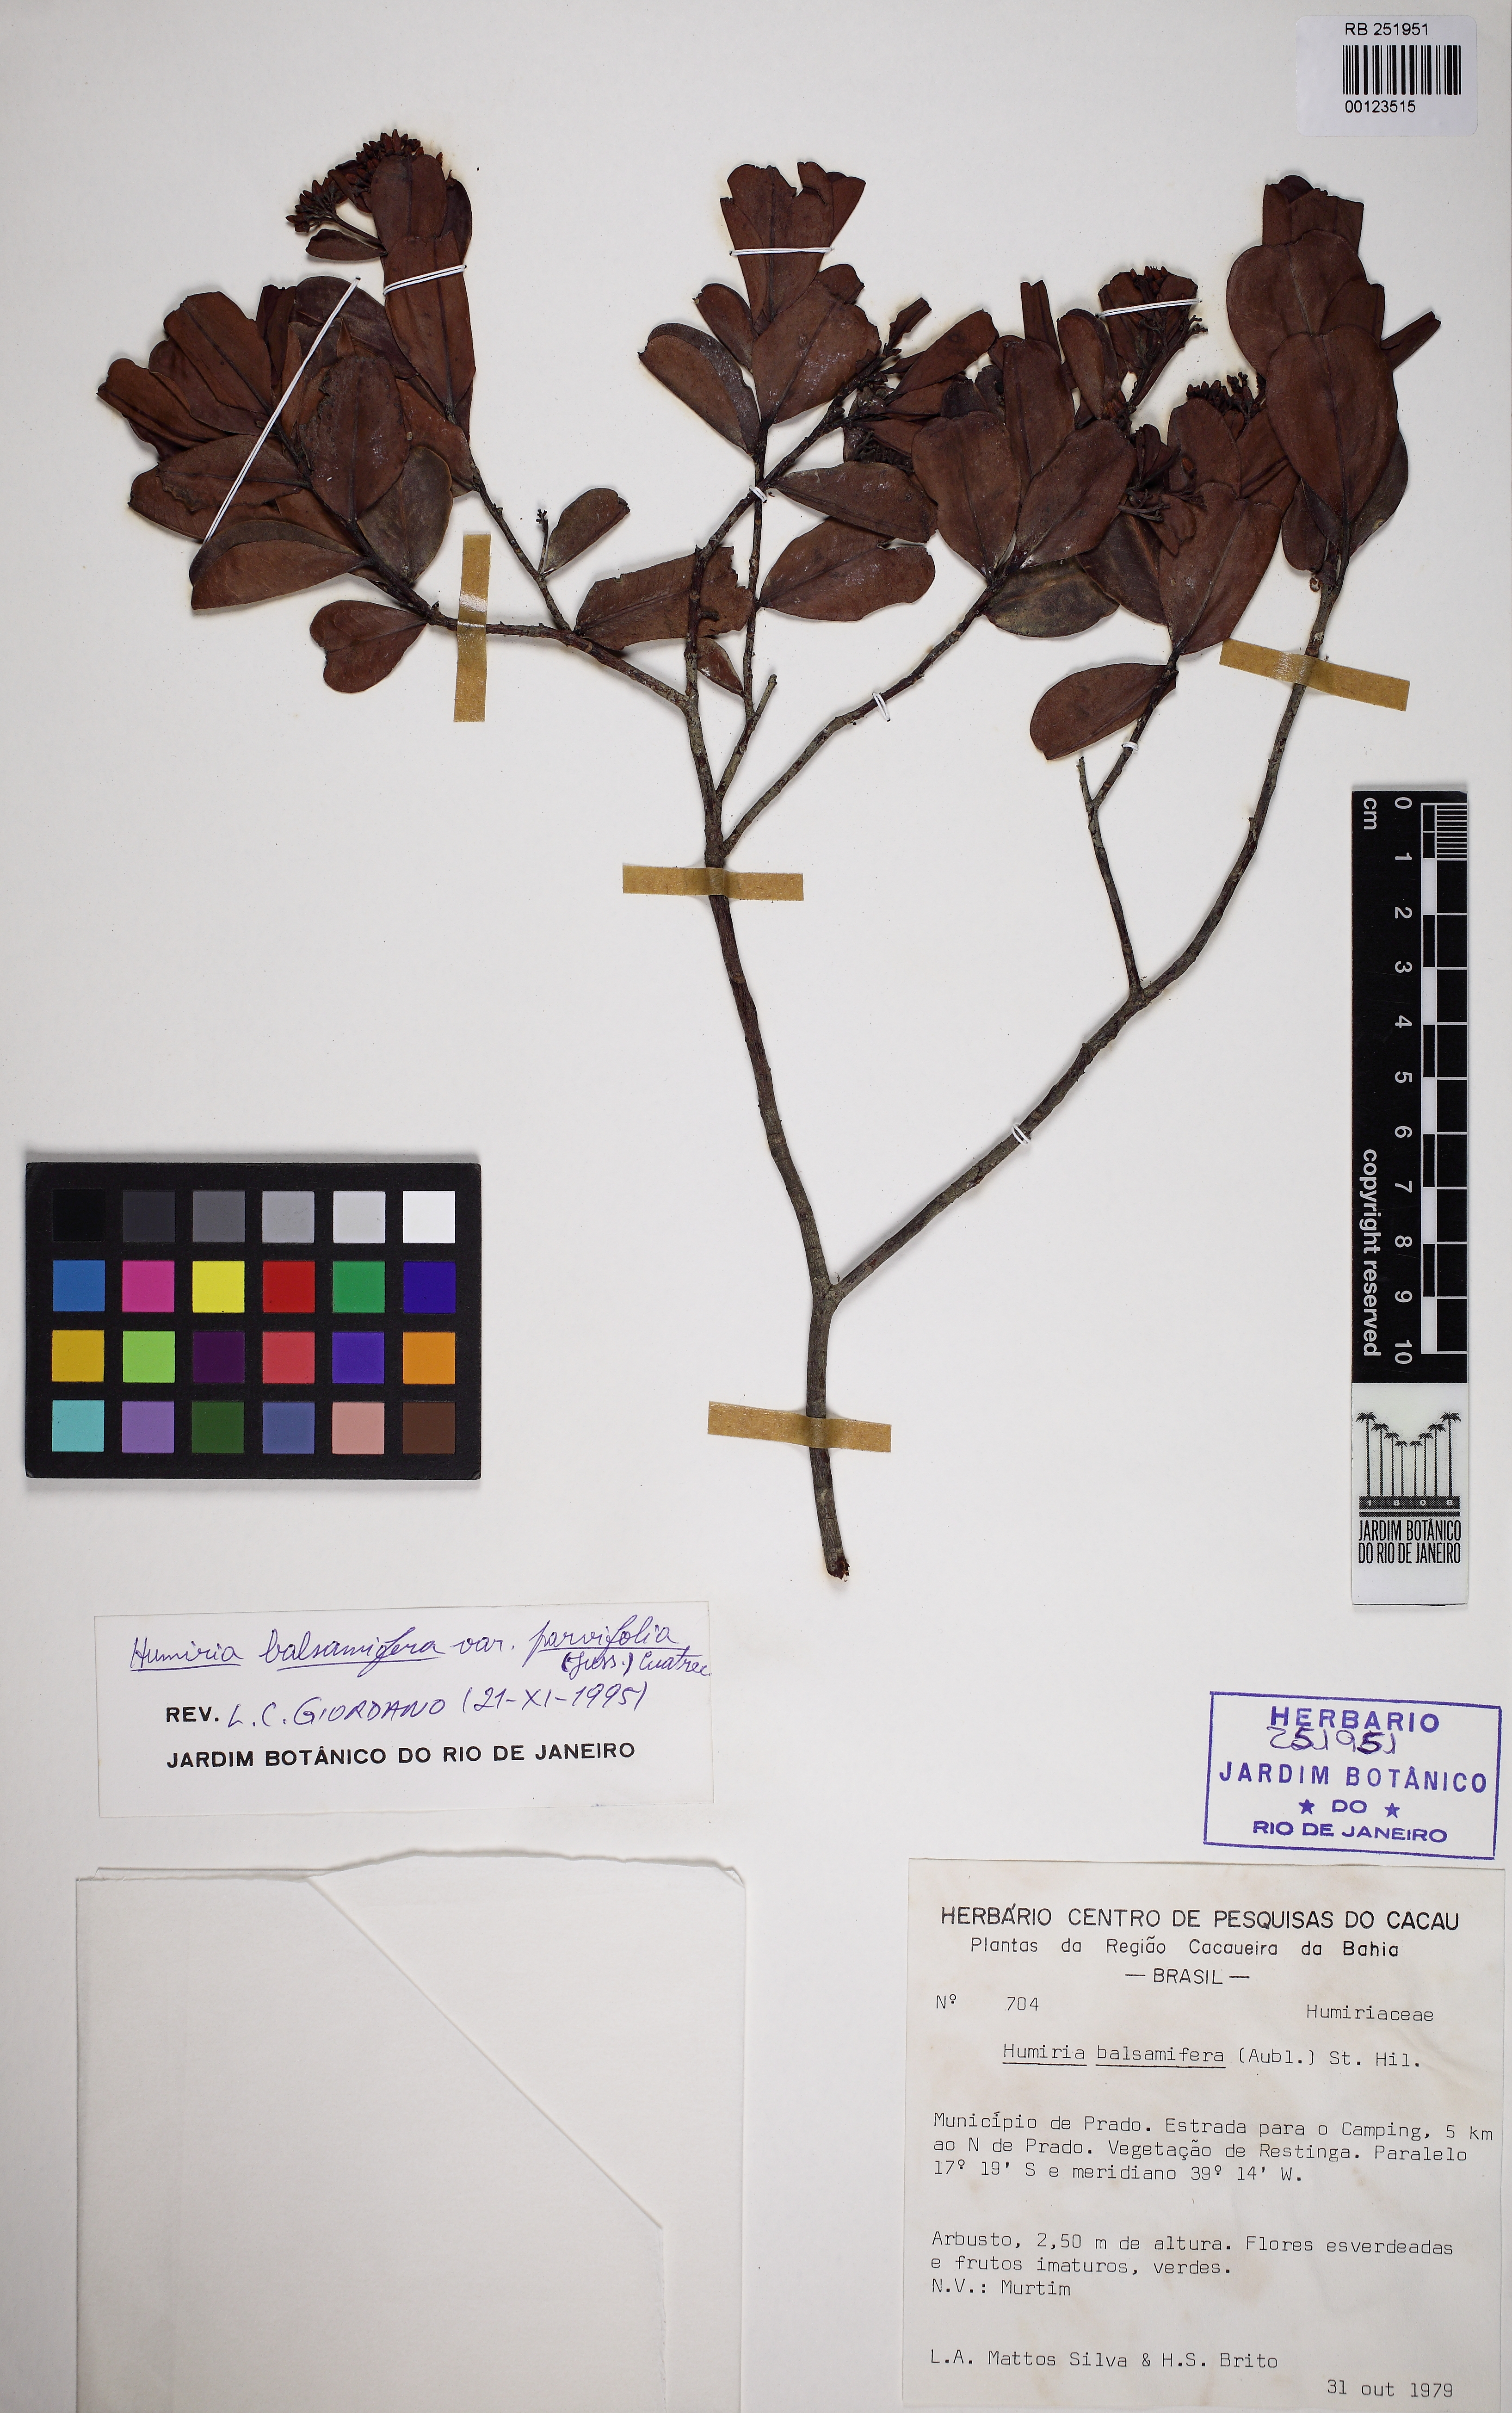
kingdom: Plantae
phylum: Tracheophyta
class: Magnoliopsida
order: Malpighiales
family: Humiriaceae
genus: Humiria
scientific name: Humiria parvifolia
